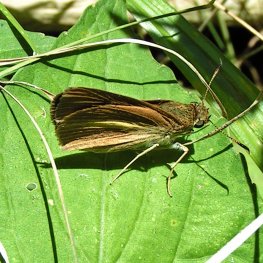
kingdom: Animalia
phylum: Arthropoda
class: Insecta
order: Lepidoptera
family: Hesperiidae
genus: Euphyes
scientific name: Euphyes dion
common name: Dion Skipper
